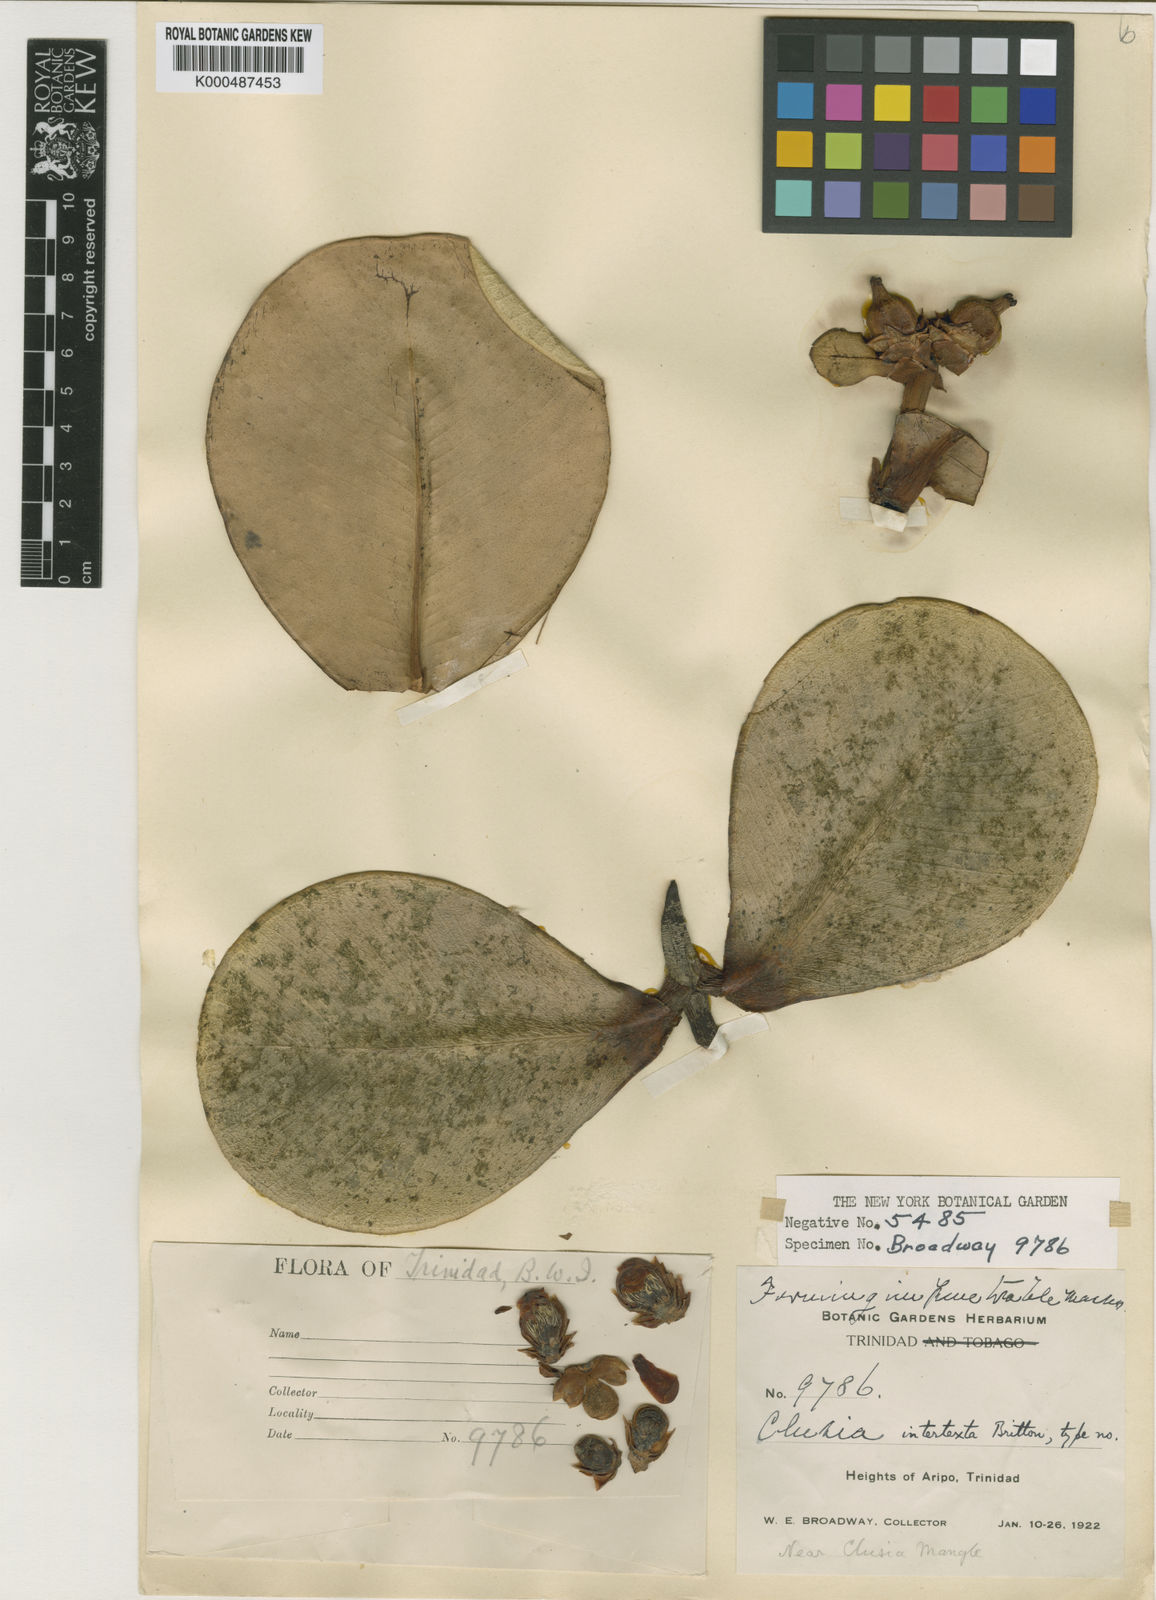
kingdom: Plantae
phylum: Tracheophyta
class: Magnoliopsida
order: Malpighiales
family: Clusiaceae
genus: Clusia
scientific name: Clusia intertexta
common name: Mountain mangrove
